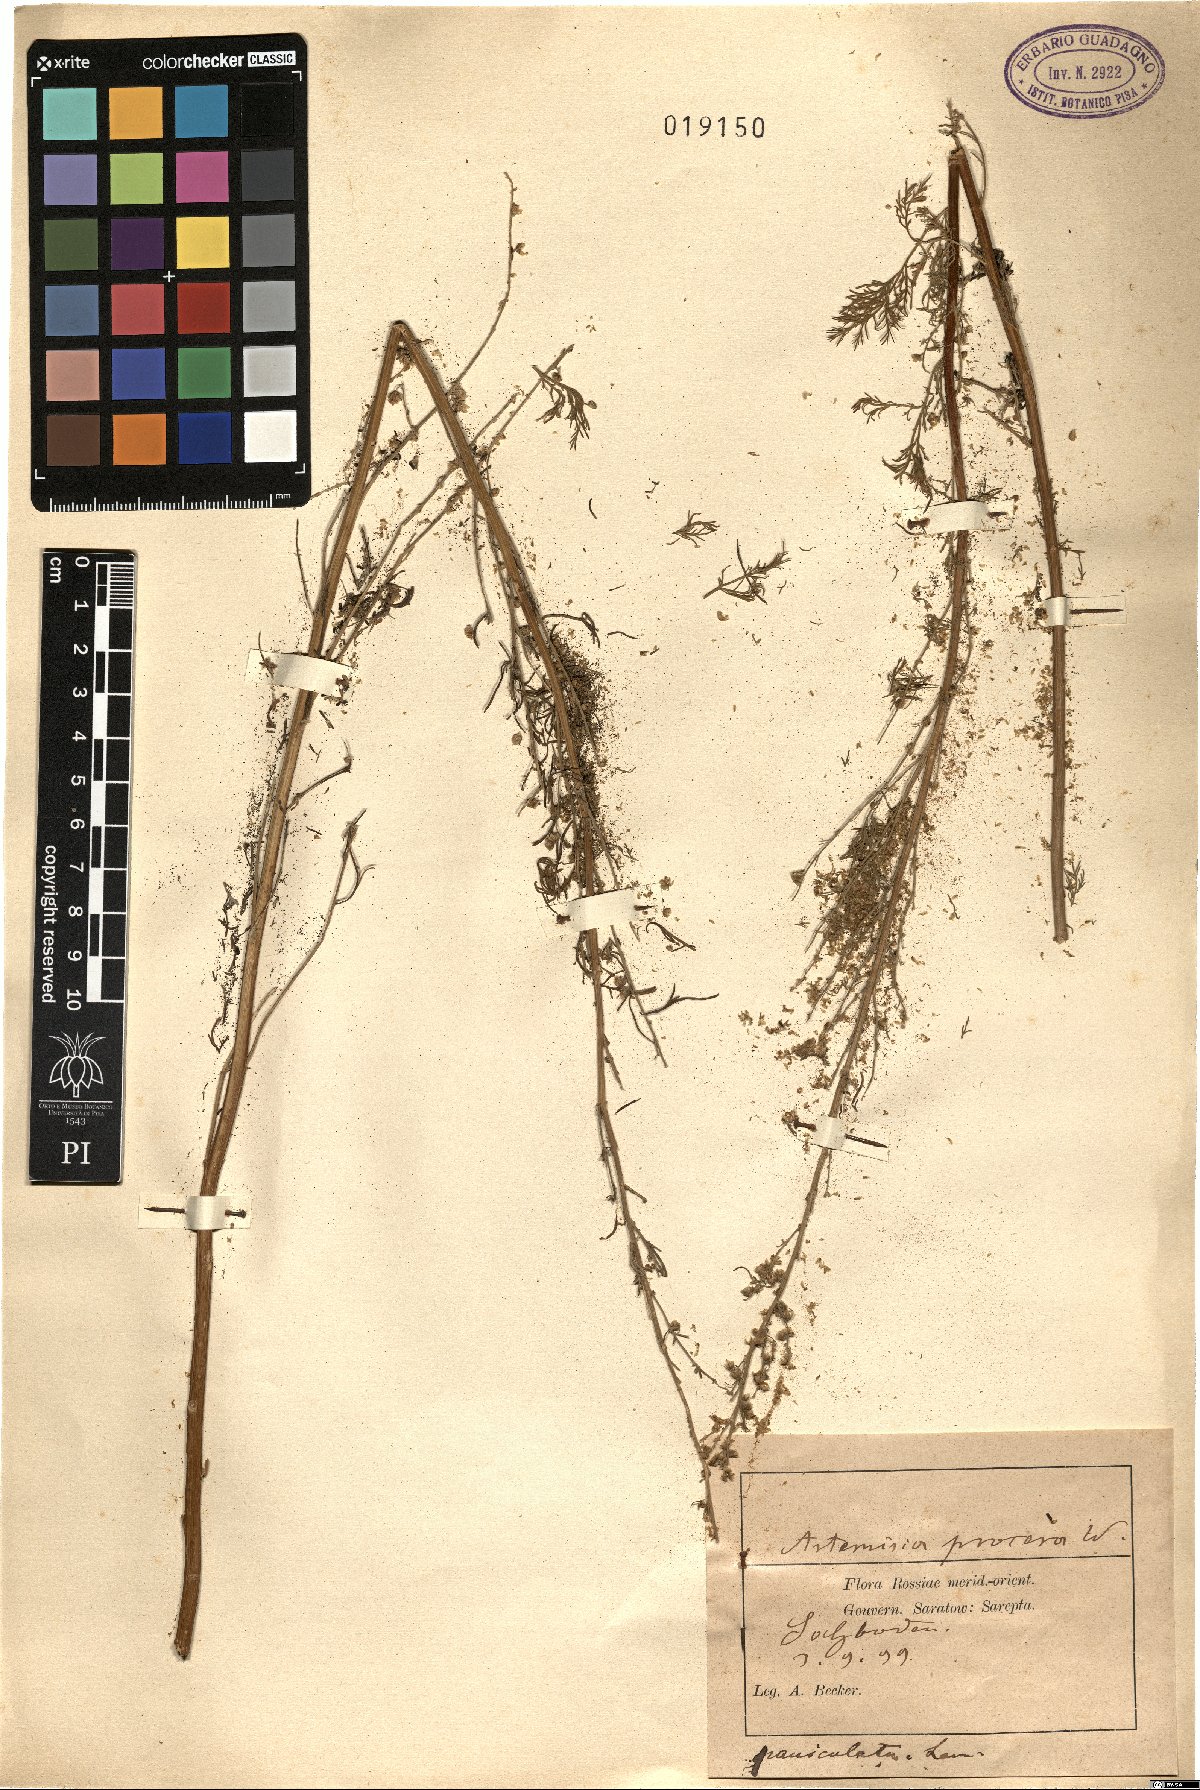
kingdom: Plantae
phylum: Tracheophyta
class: Magnoliopsida
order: Asterales
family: Asteraceae
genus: Artemisia
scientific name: Artemisia abrotanum
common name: Southernwood
